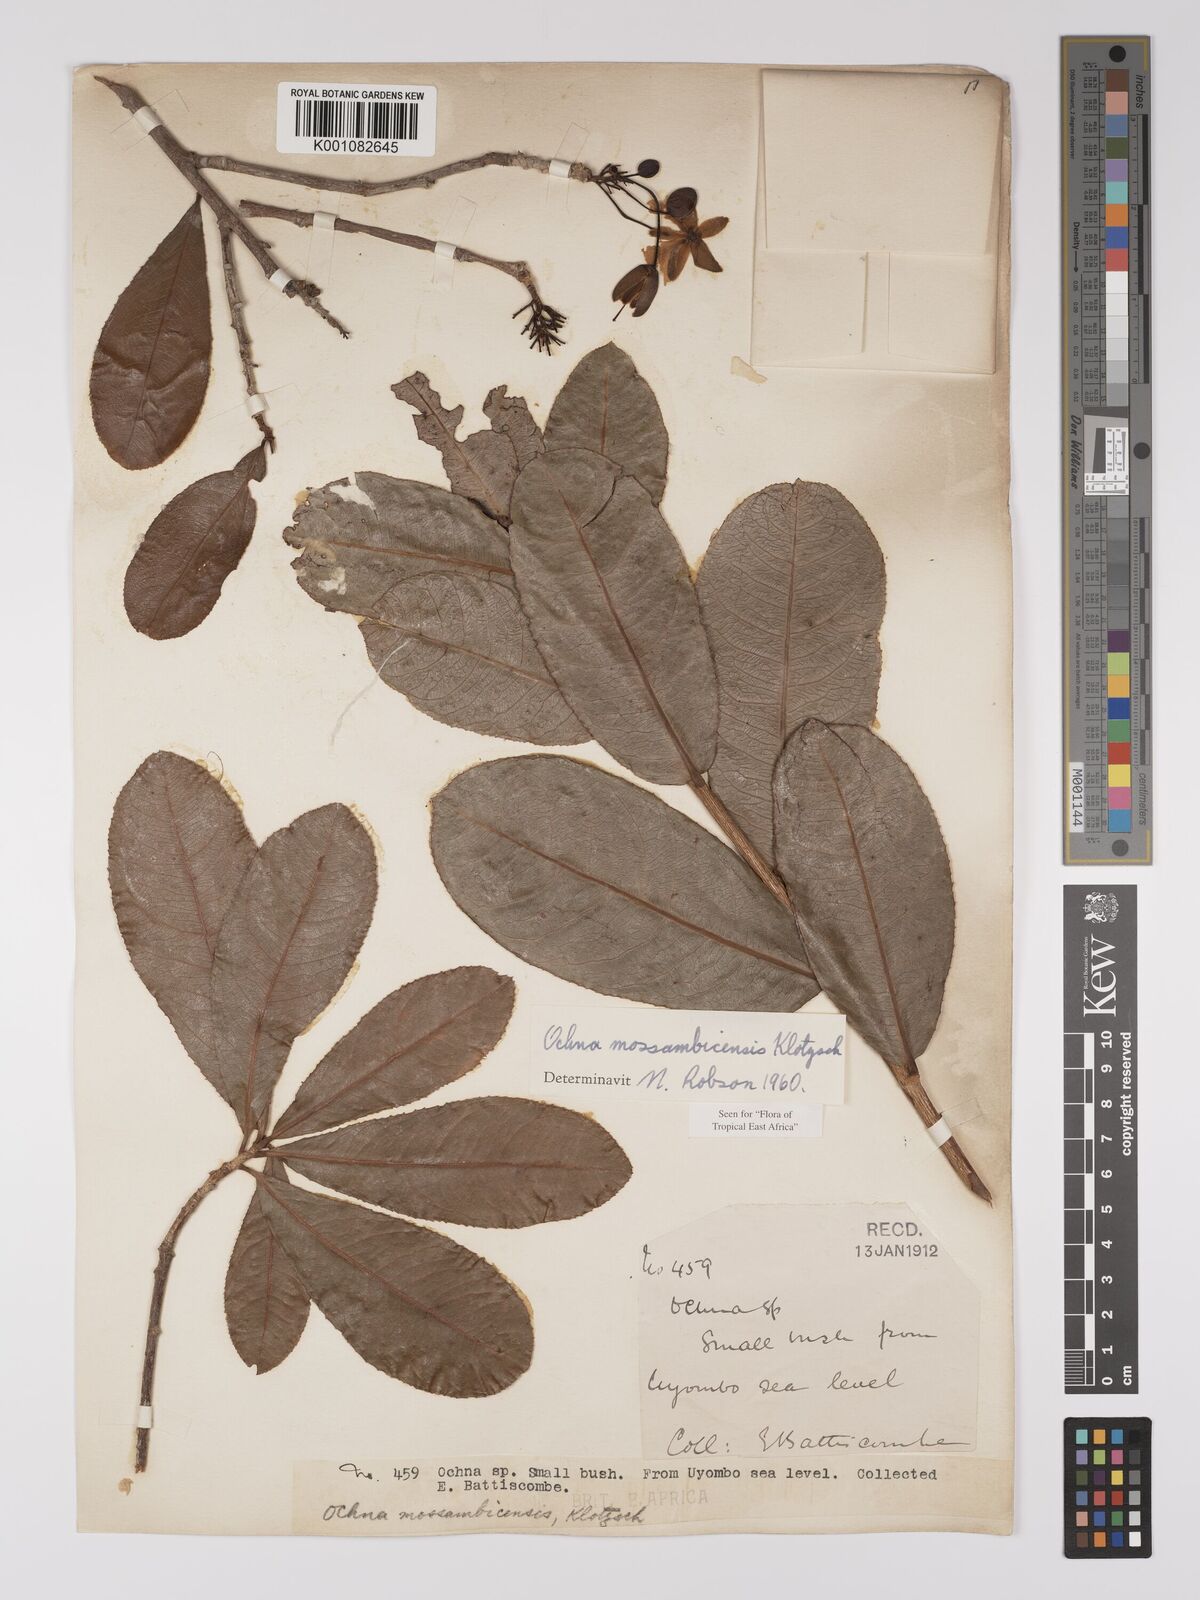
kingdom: Plantae
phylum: Tracheophyta
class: Magnoliopsida
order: Malpighiales
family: Ochnaceae
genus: Ochna
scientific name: Ochna atropurpurea
